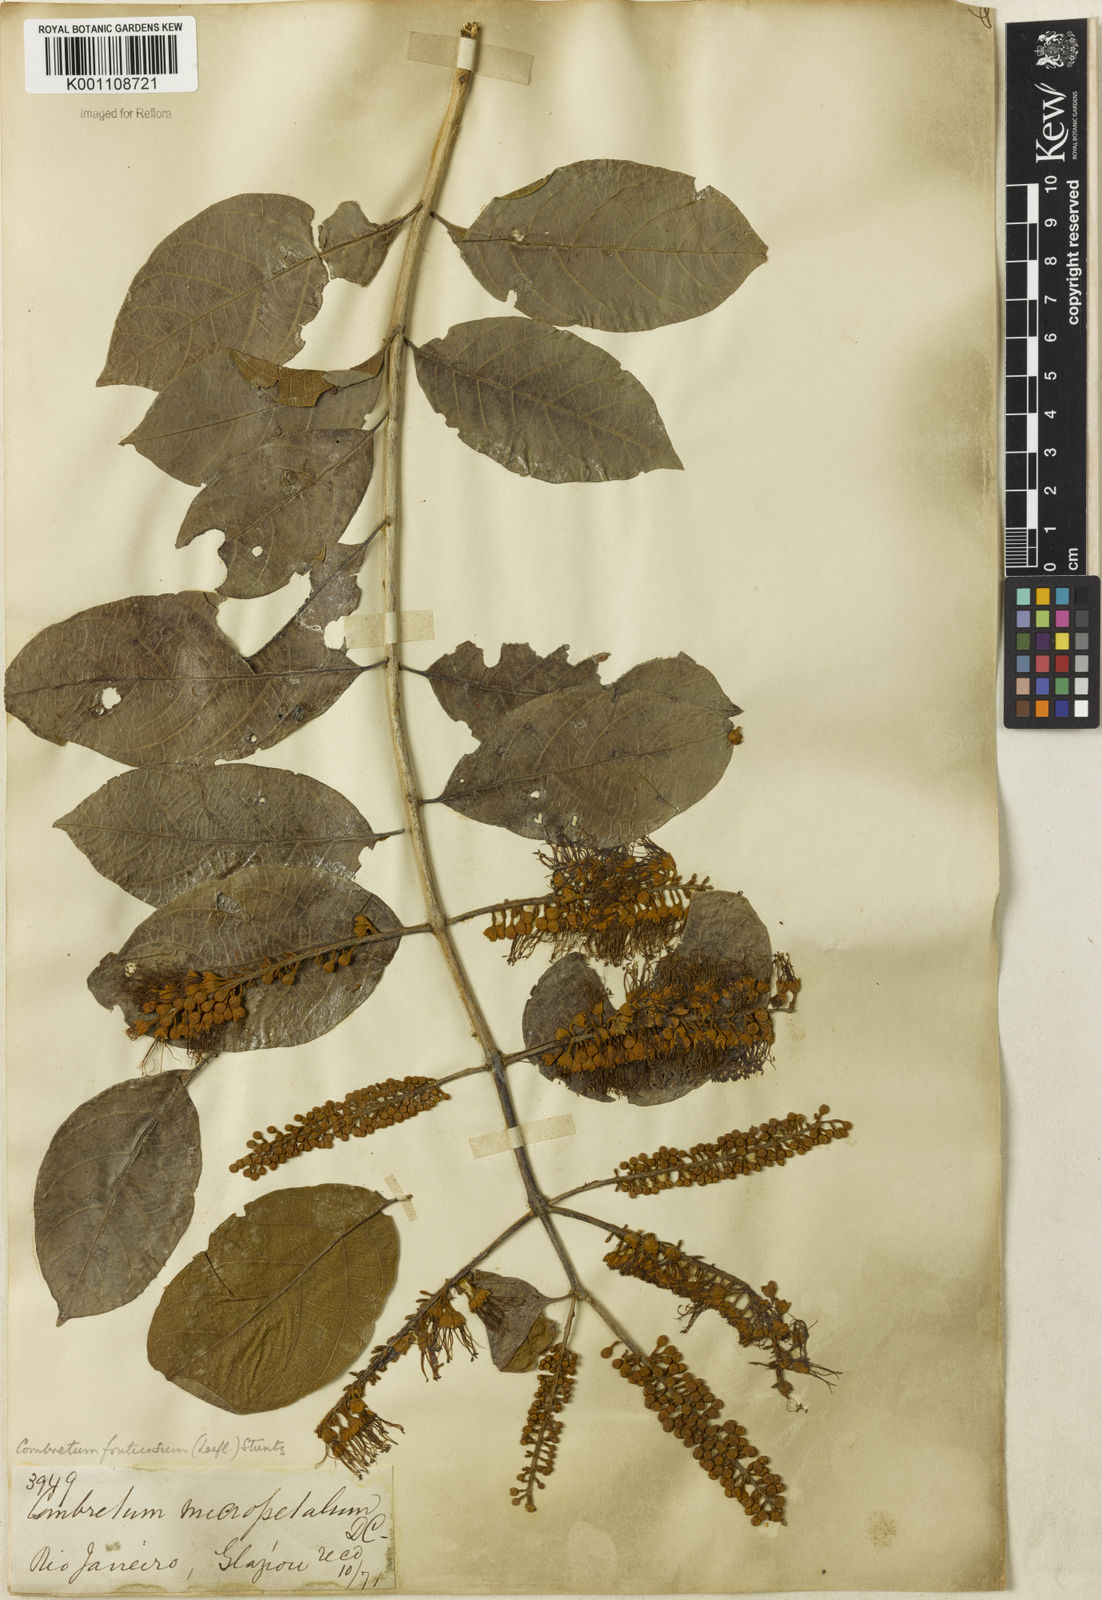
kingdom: Plantae
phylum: Tracheophyta
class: Magnoliopsida
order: Myrtales
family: Combretaceae
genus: Combretum
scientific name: Combretum fruticosum
